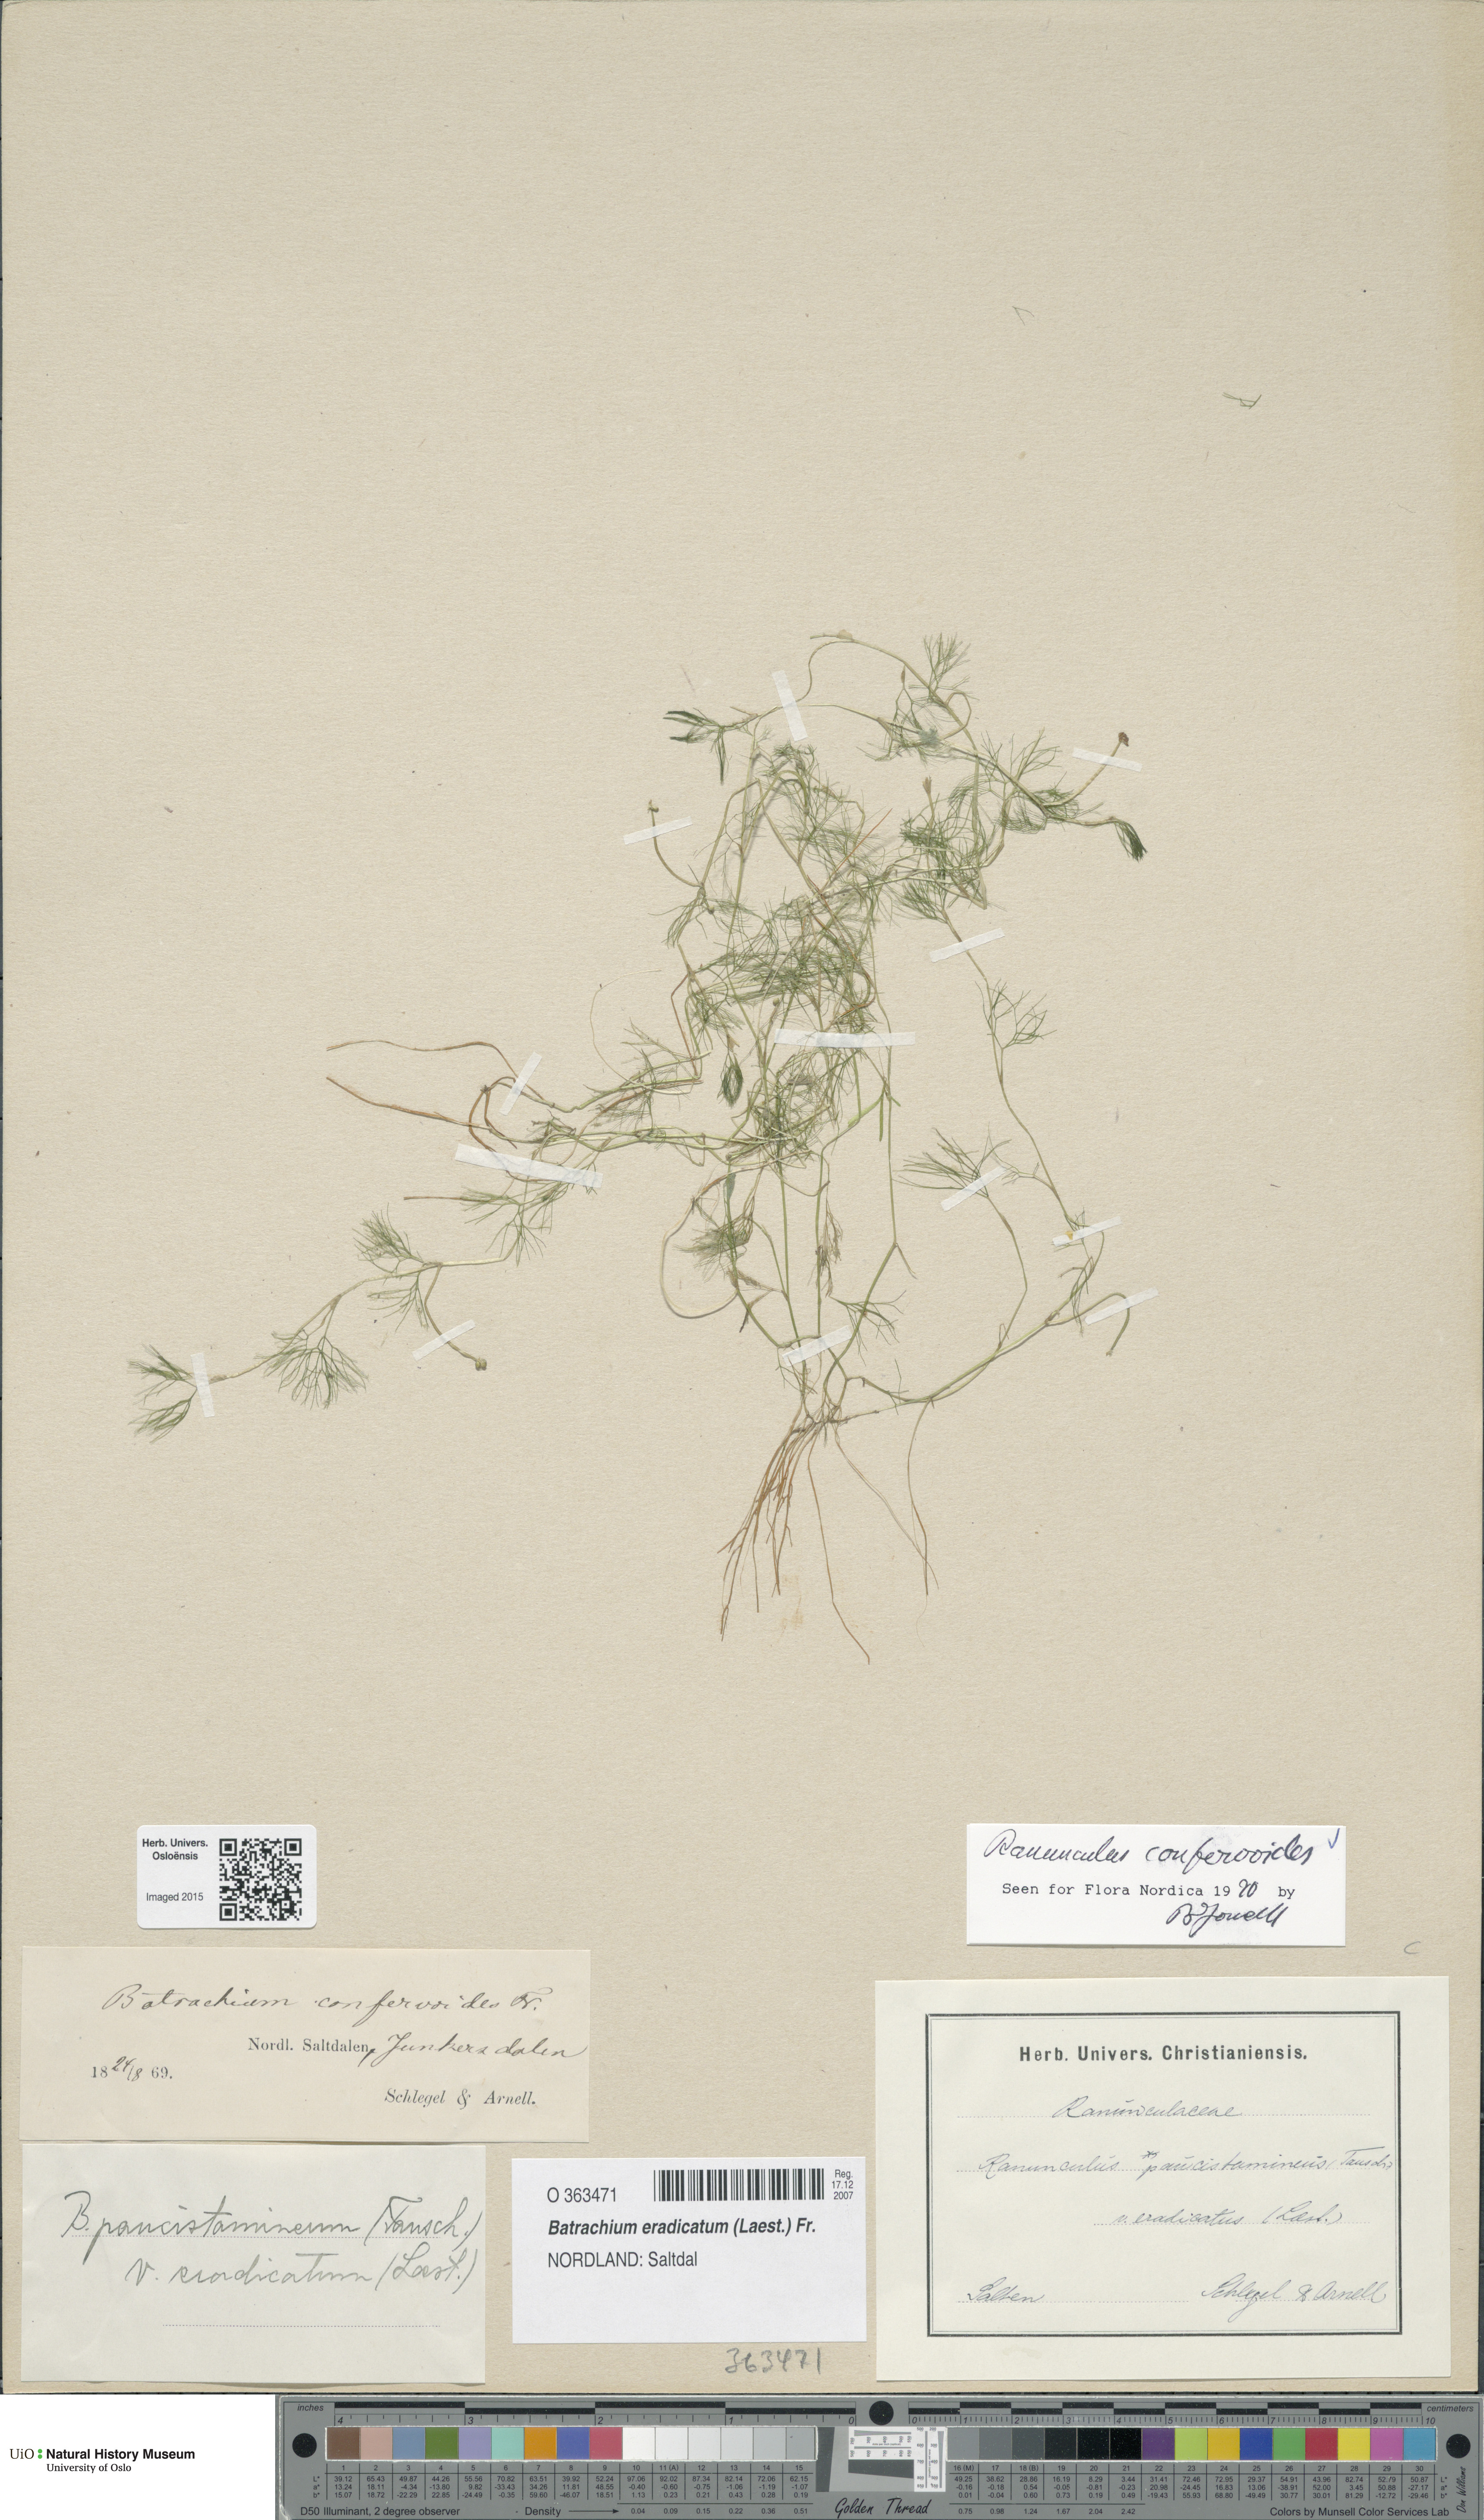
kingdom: Plantae
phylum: Tracheophyta
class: Magnoliopsida
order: Ranunculales
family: Ranunculaceae
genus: Ranunculus
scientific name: Ranunculus confervoides
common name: Delicate buttercup
